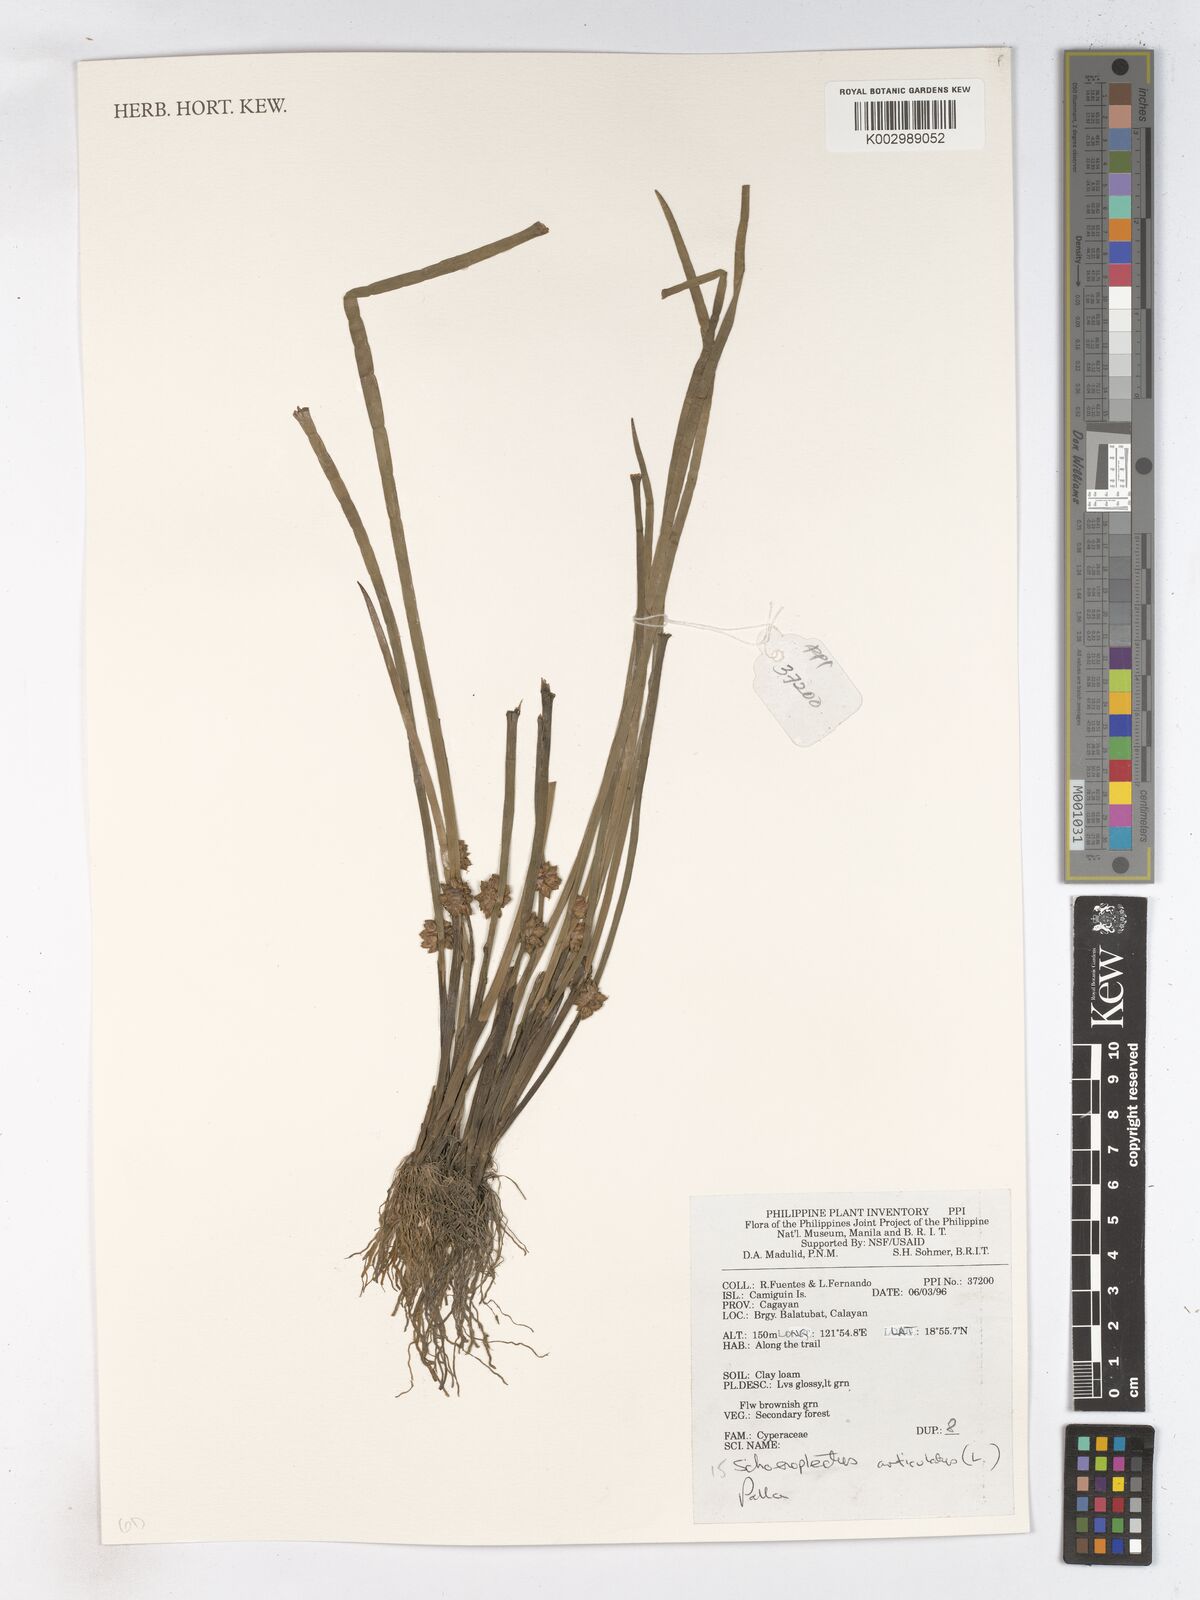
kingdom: Plantae
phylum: Tracheophyta
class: Liliopsida
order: Poales
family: Cyperaceae
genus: Schoenoplectiella
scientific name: Schoenoplectiella articulata
